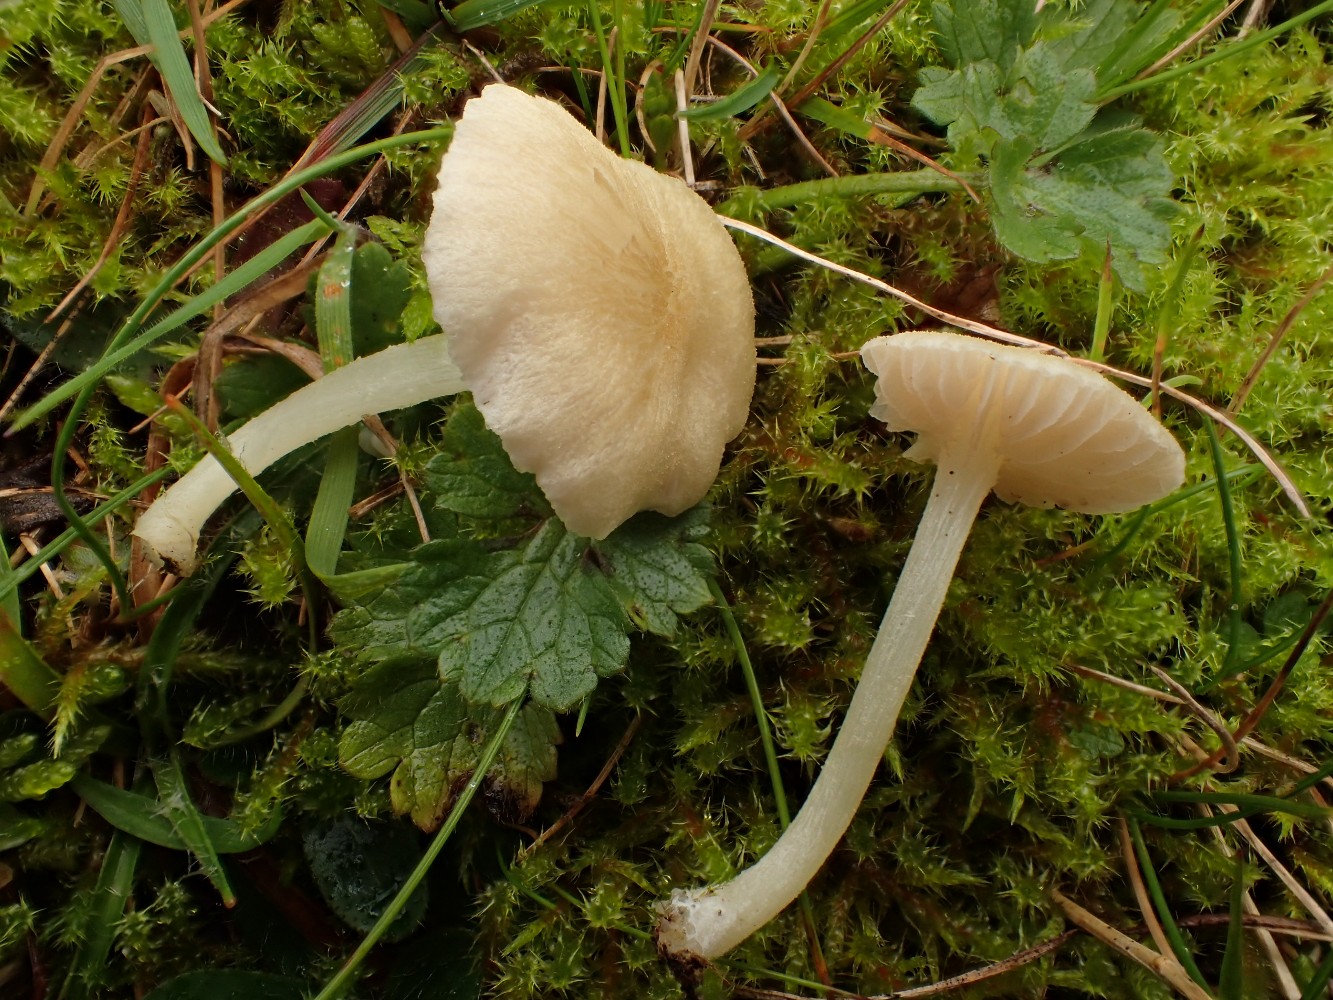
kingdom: Fungi
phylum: Basidiomycota
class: Agaricomycetes
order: Agaricales
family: Entolomataceae
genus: Entoloma
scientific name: Entoloma sericellum
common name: silkehvid rødblad
